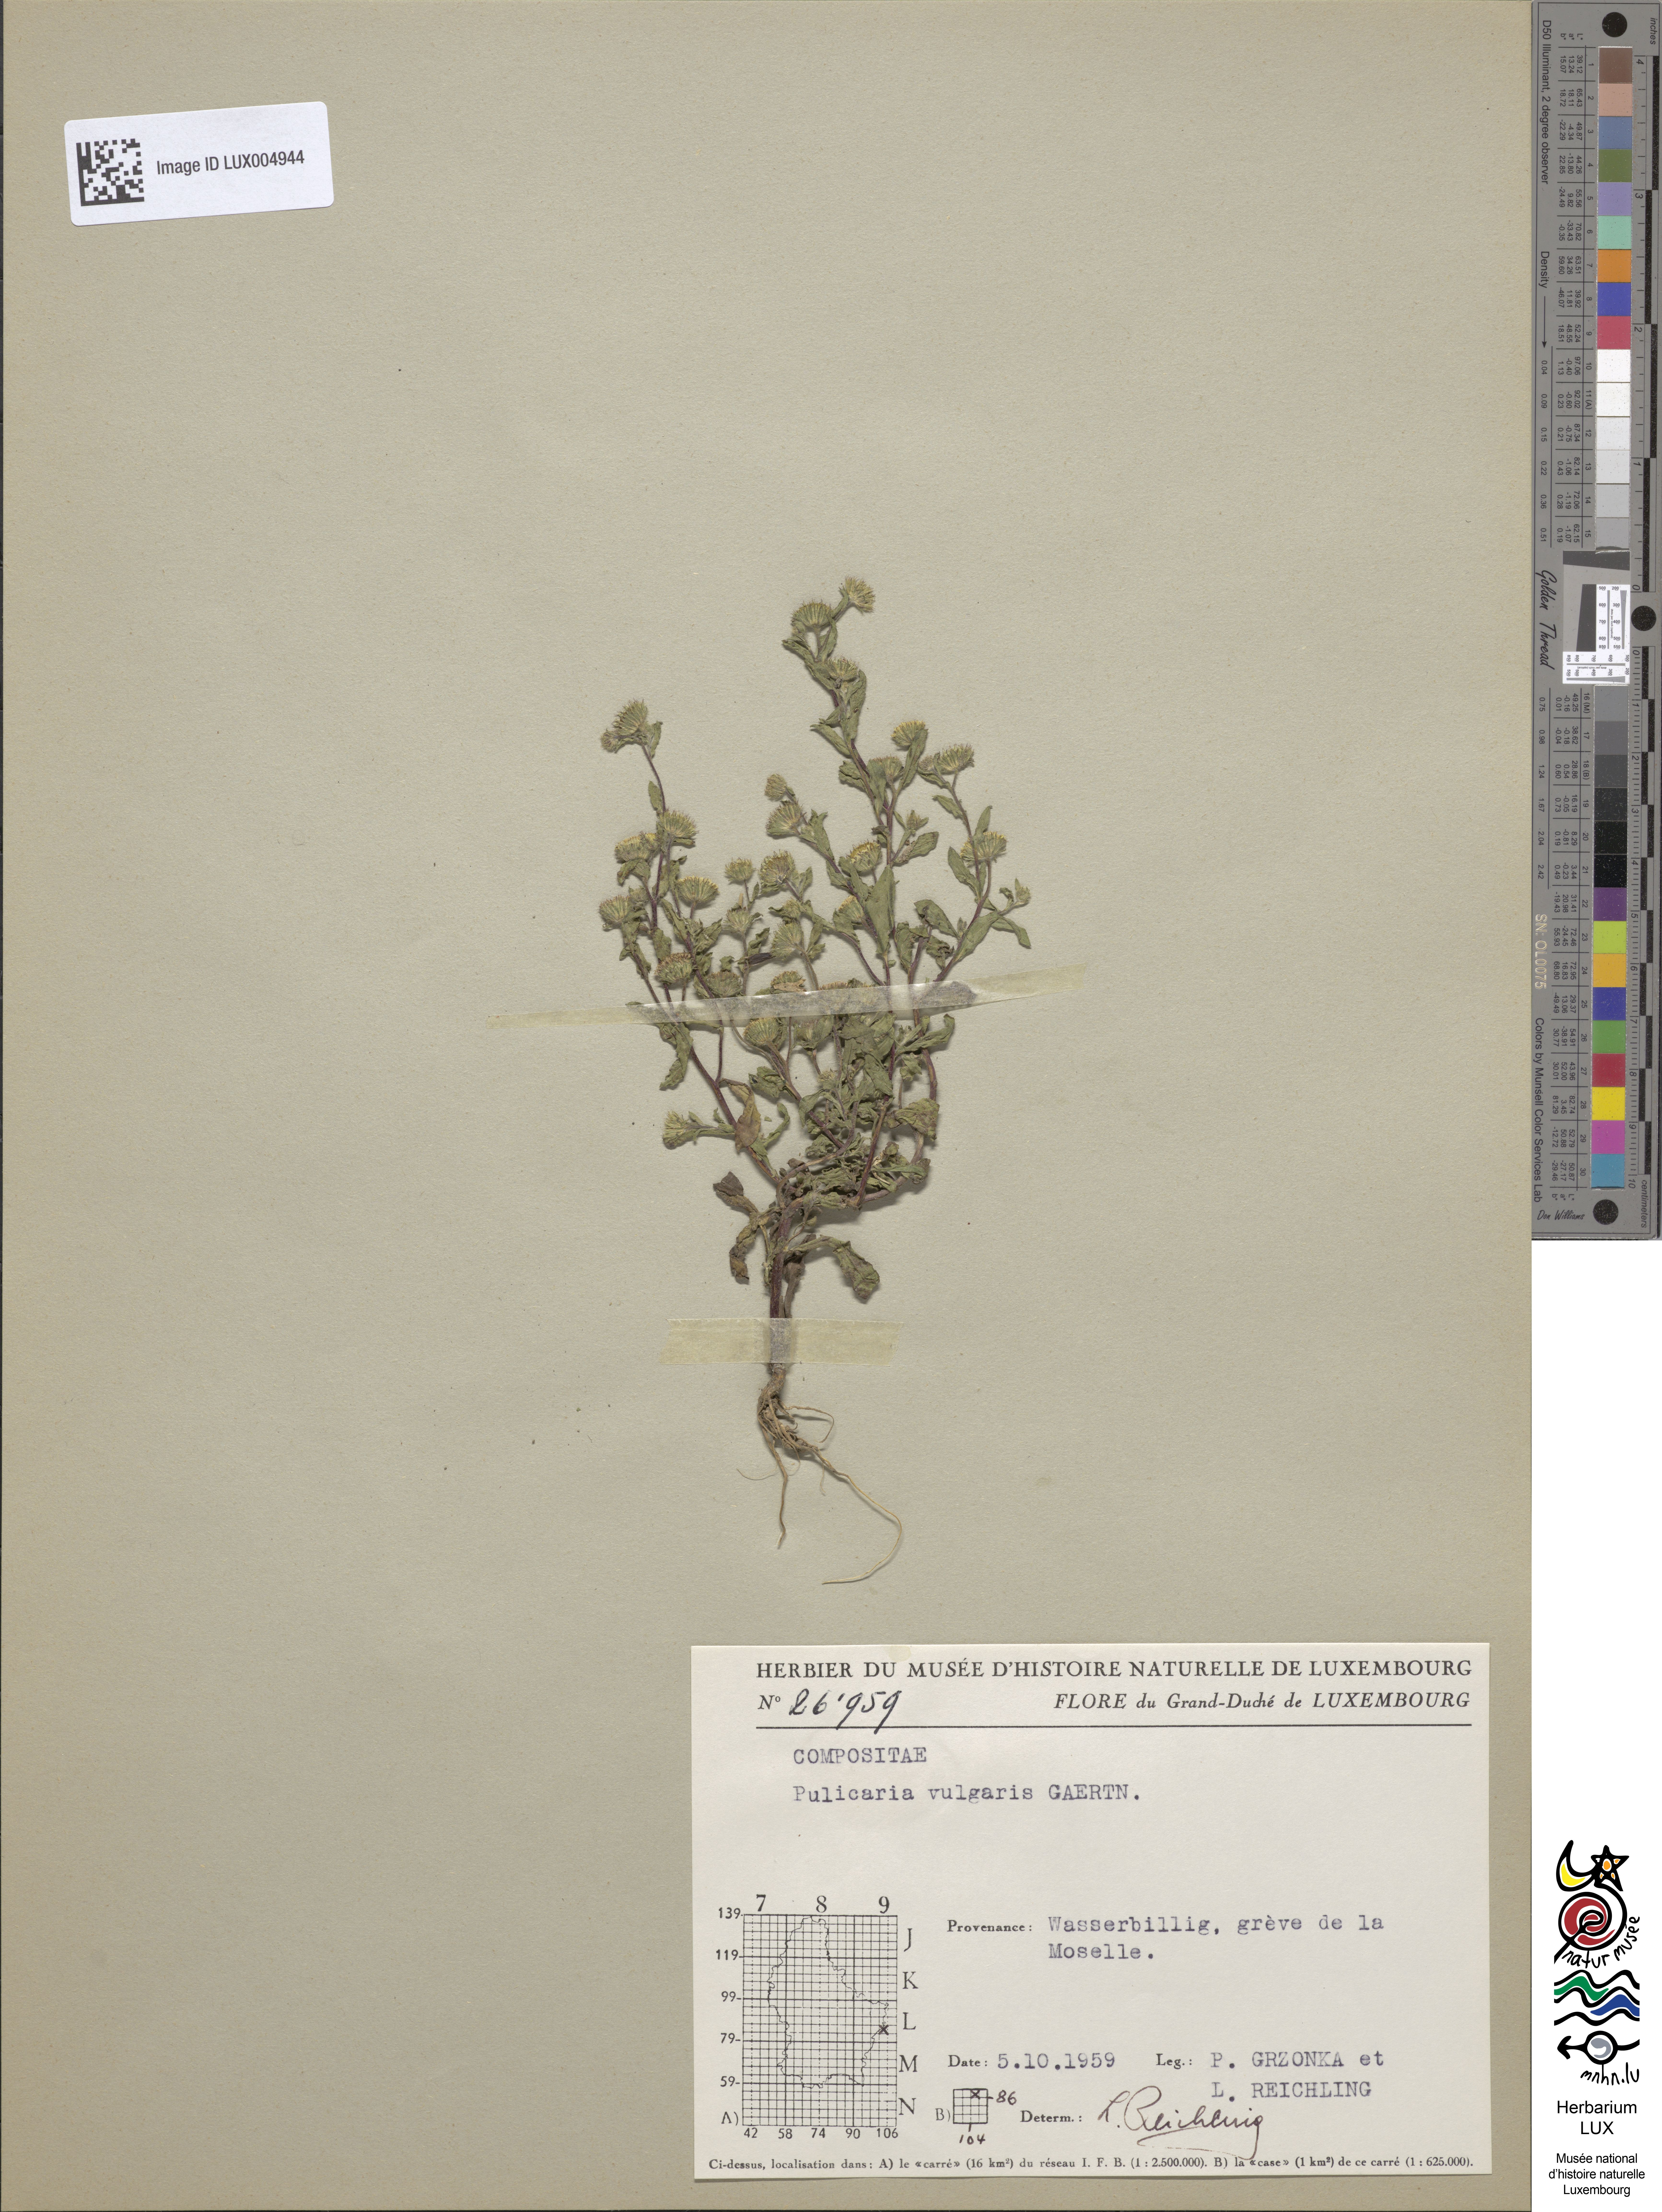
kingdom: Plantae
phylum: Tracheophyta
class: Magnoliopsida
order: Asterales
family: Asteraceae
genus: Pulicaria
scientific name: Pulicaria vulgaris
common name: Small fleabane
